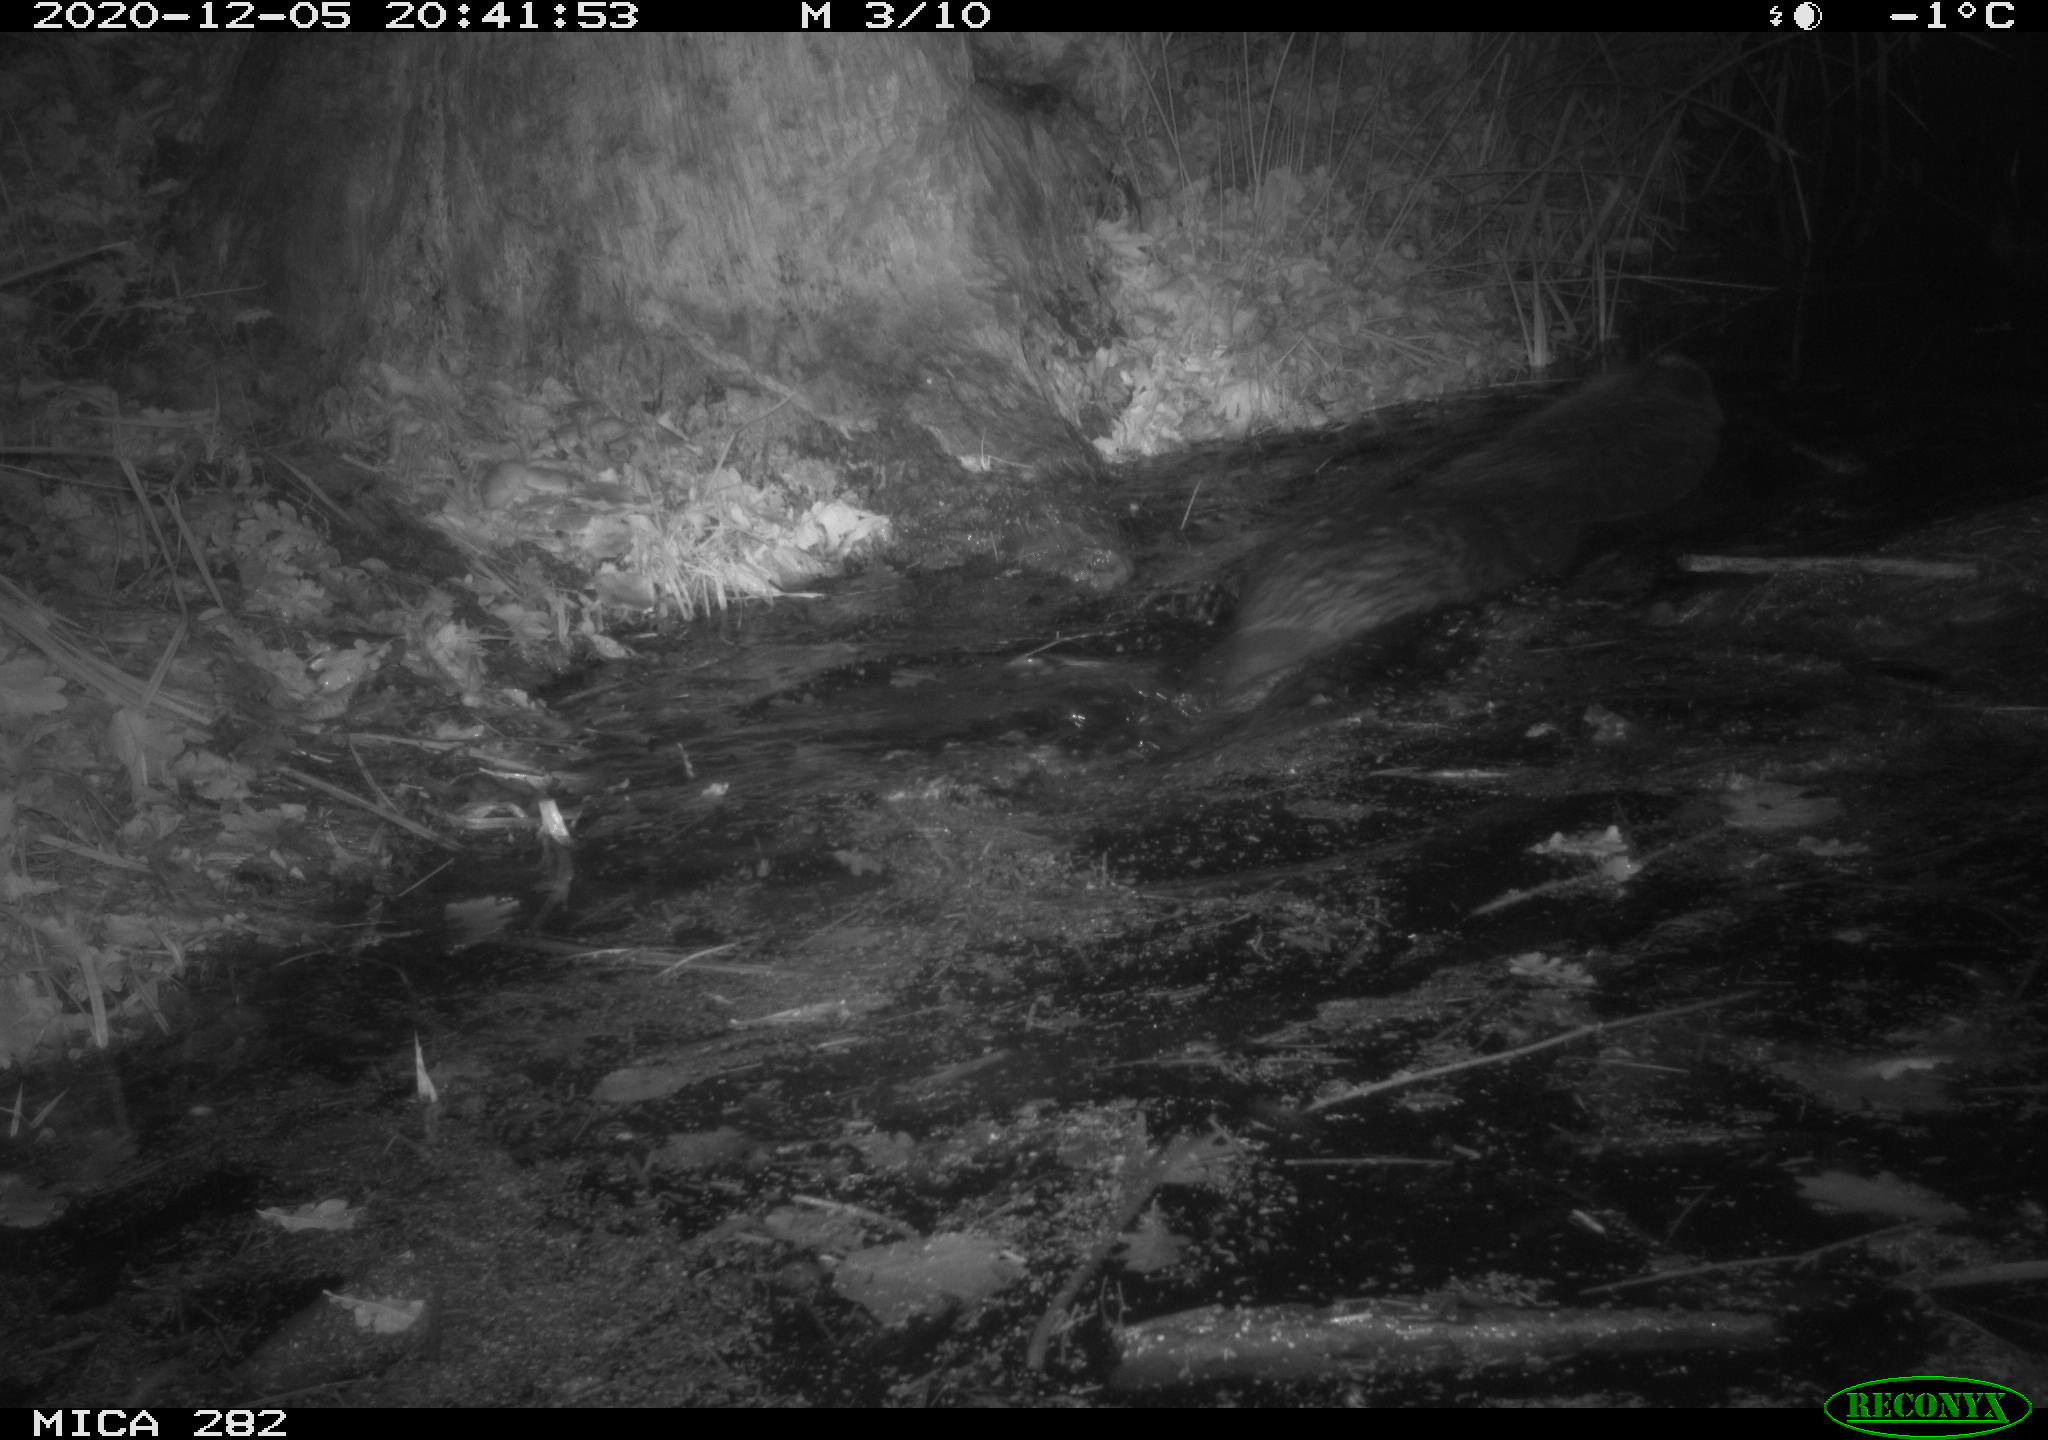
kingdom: Animalia
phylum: Chordata
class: Mammalia
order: Rodentia
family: Castoridae
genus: Castor
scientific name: Castor fiber
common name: Eurasian beaver
